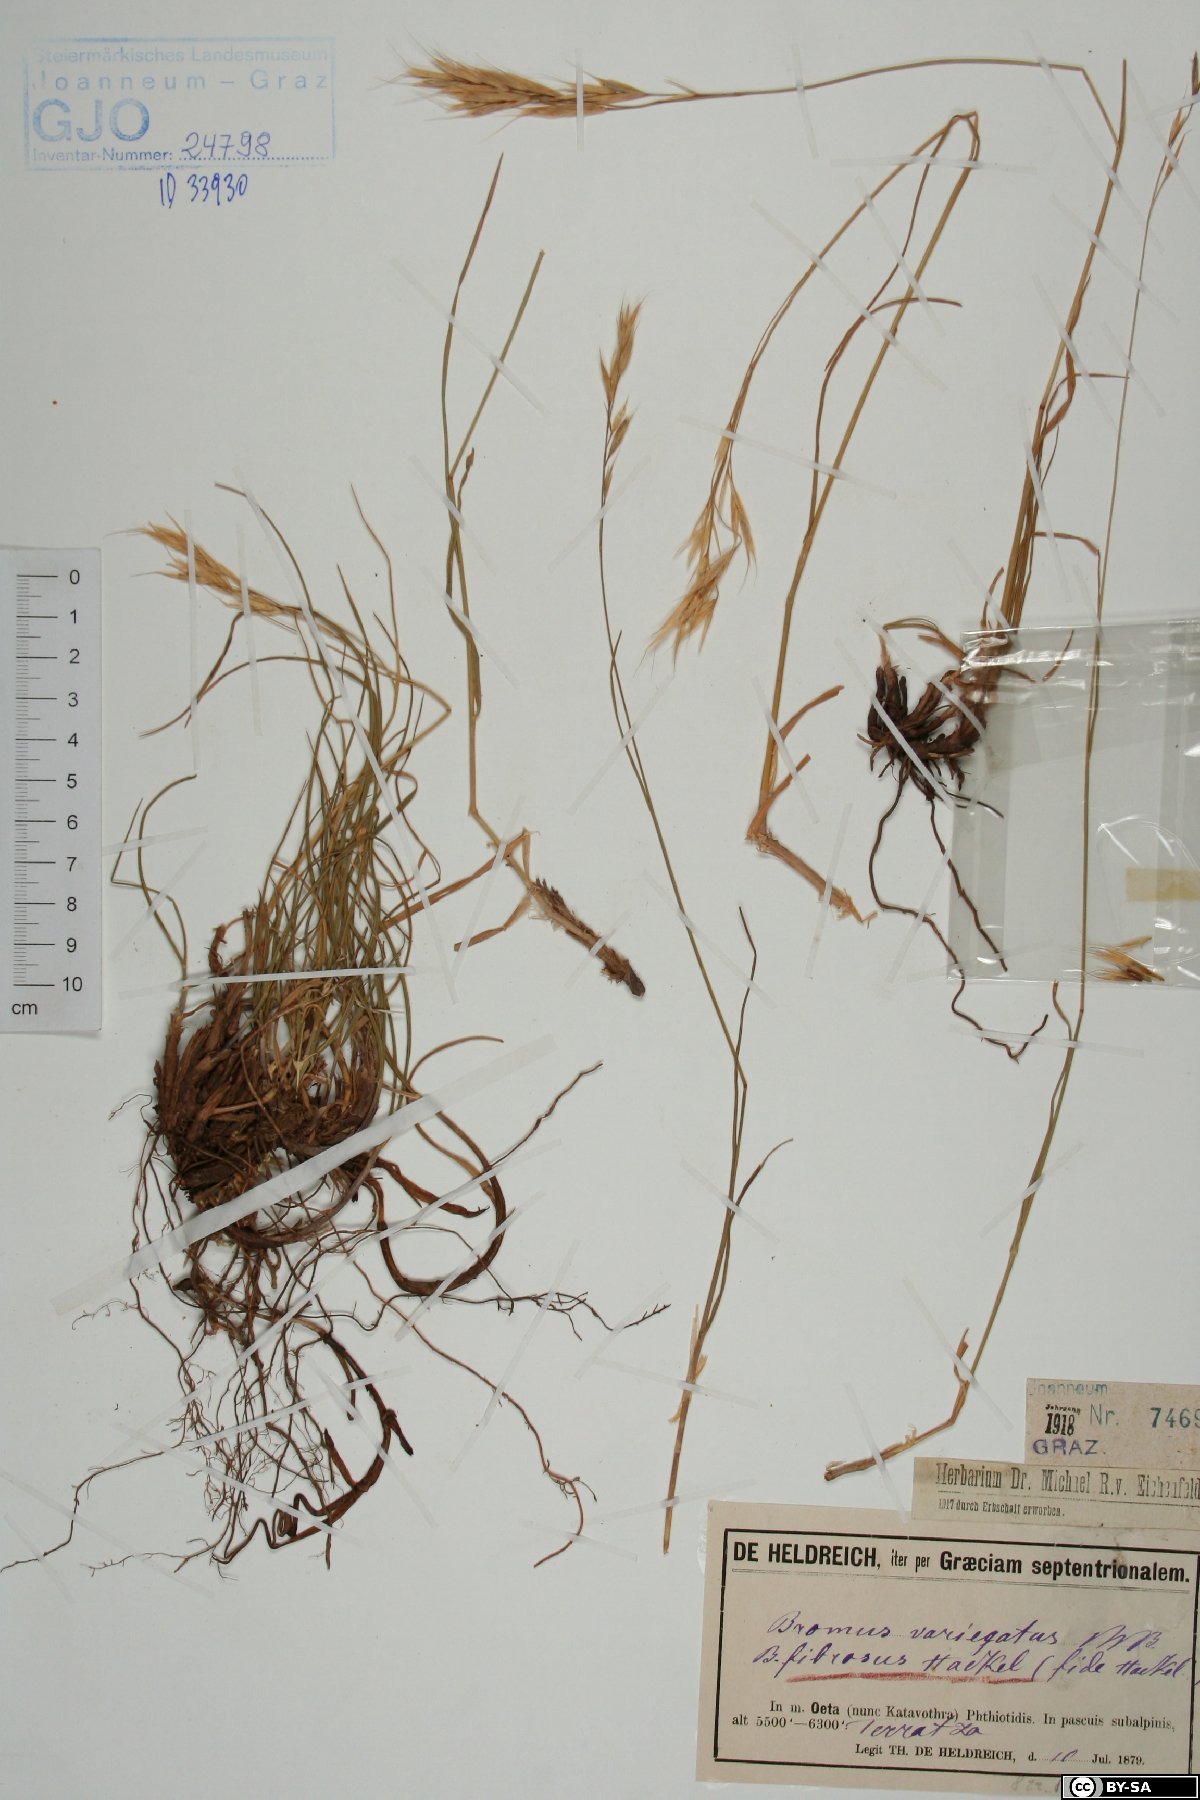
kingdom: Plantae
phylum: Tracheophyta
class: Liliopsida
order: Poales
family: Poaceae
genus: Bromus
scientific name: Bromus variegatus
